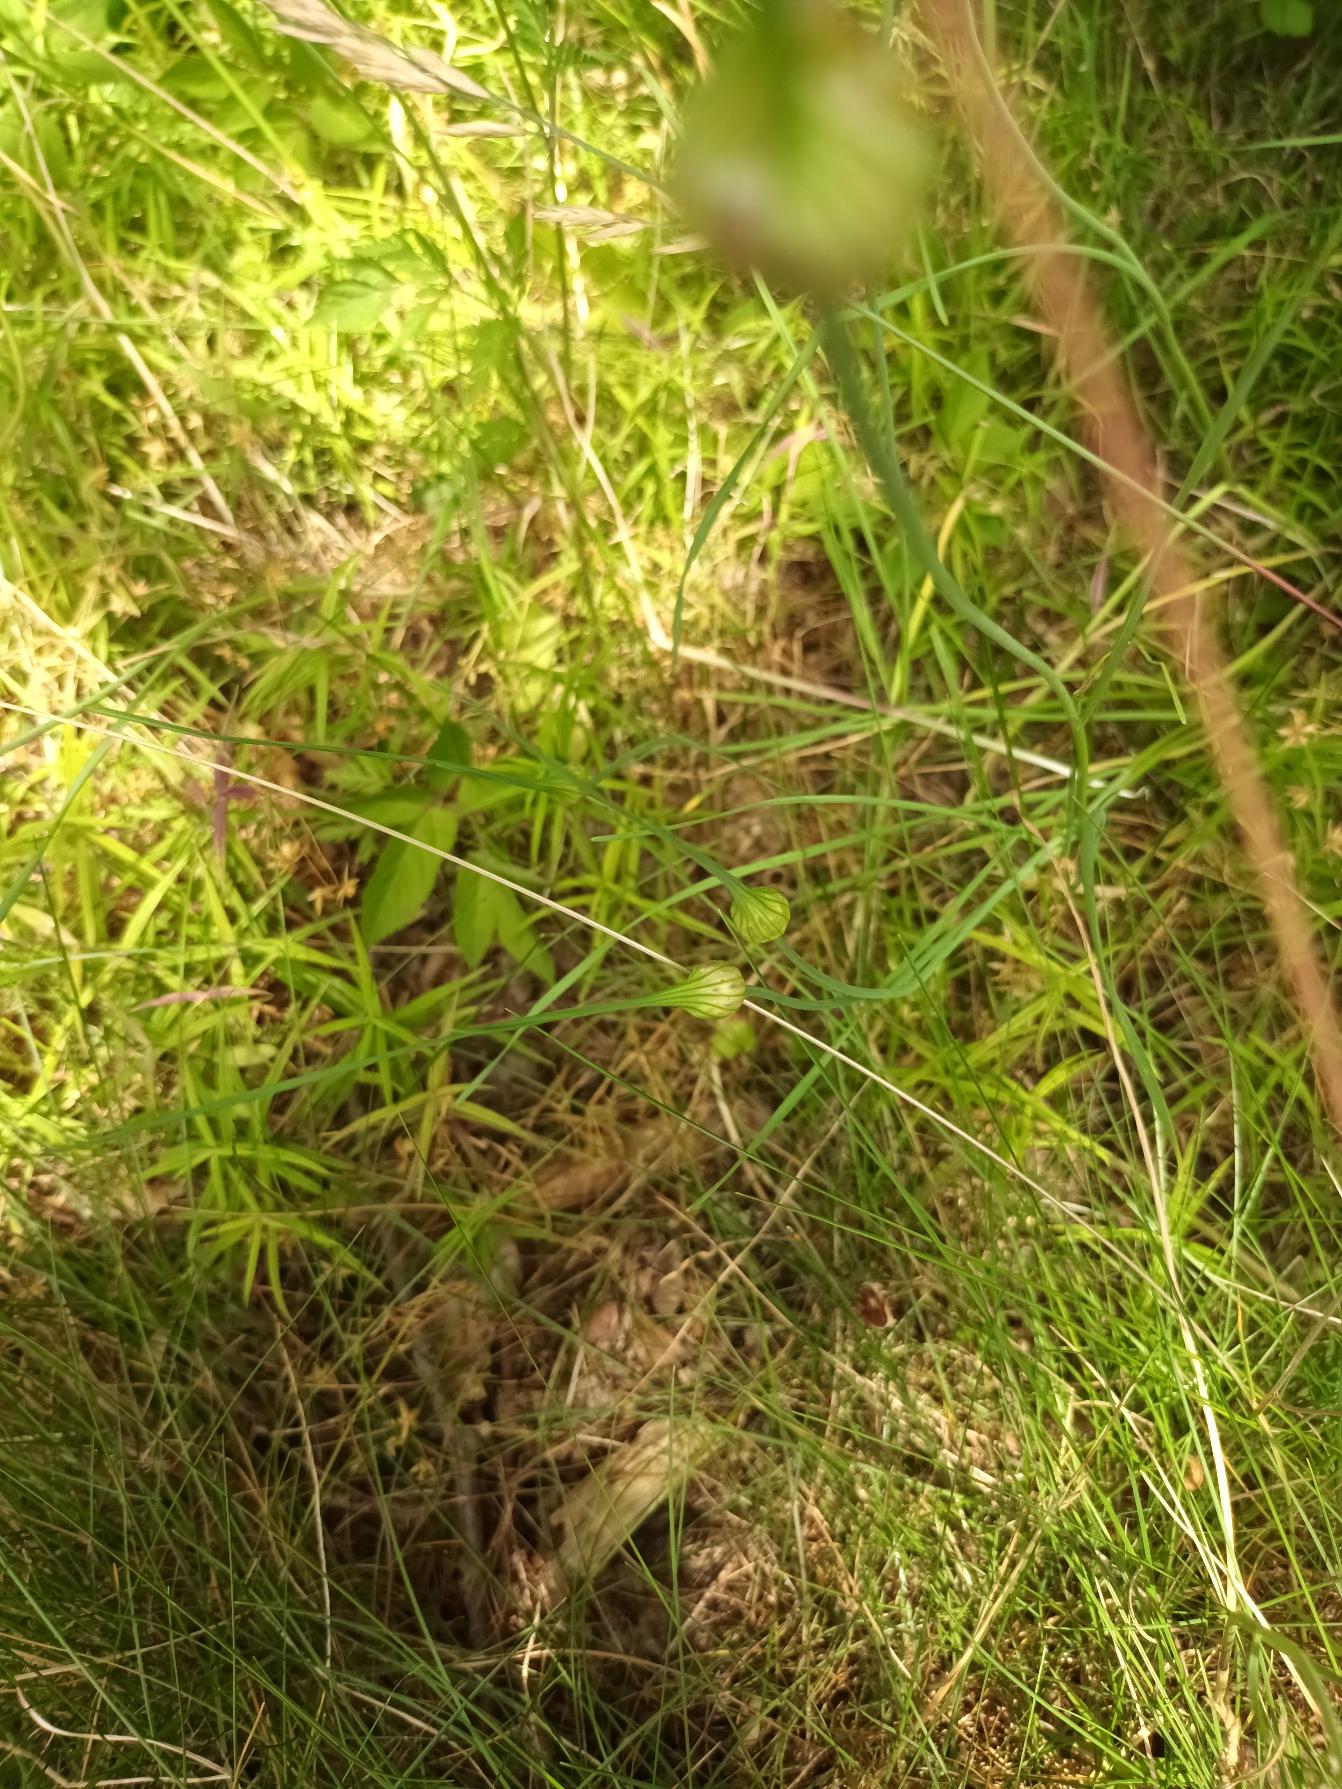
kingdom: Plantae
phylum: Tracheophyta
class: Liliopsida
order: Asparagales
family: Amaryllidaceae
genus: Allium
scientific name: Allium oleraceum
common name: Vild løg
